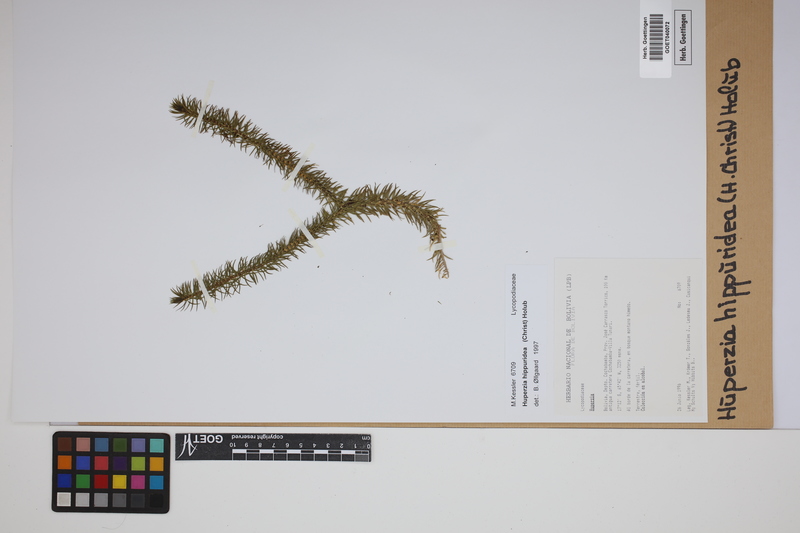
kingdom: Plantae
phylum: Tracheophyta
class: Lycopodiopsida
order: Lycopodiales
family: Lycopodiaceae
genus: Phlegmariurus
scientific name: Phlegmariurus hippurideus
